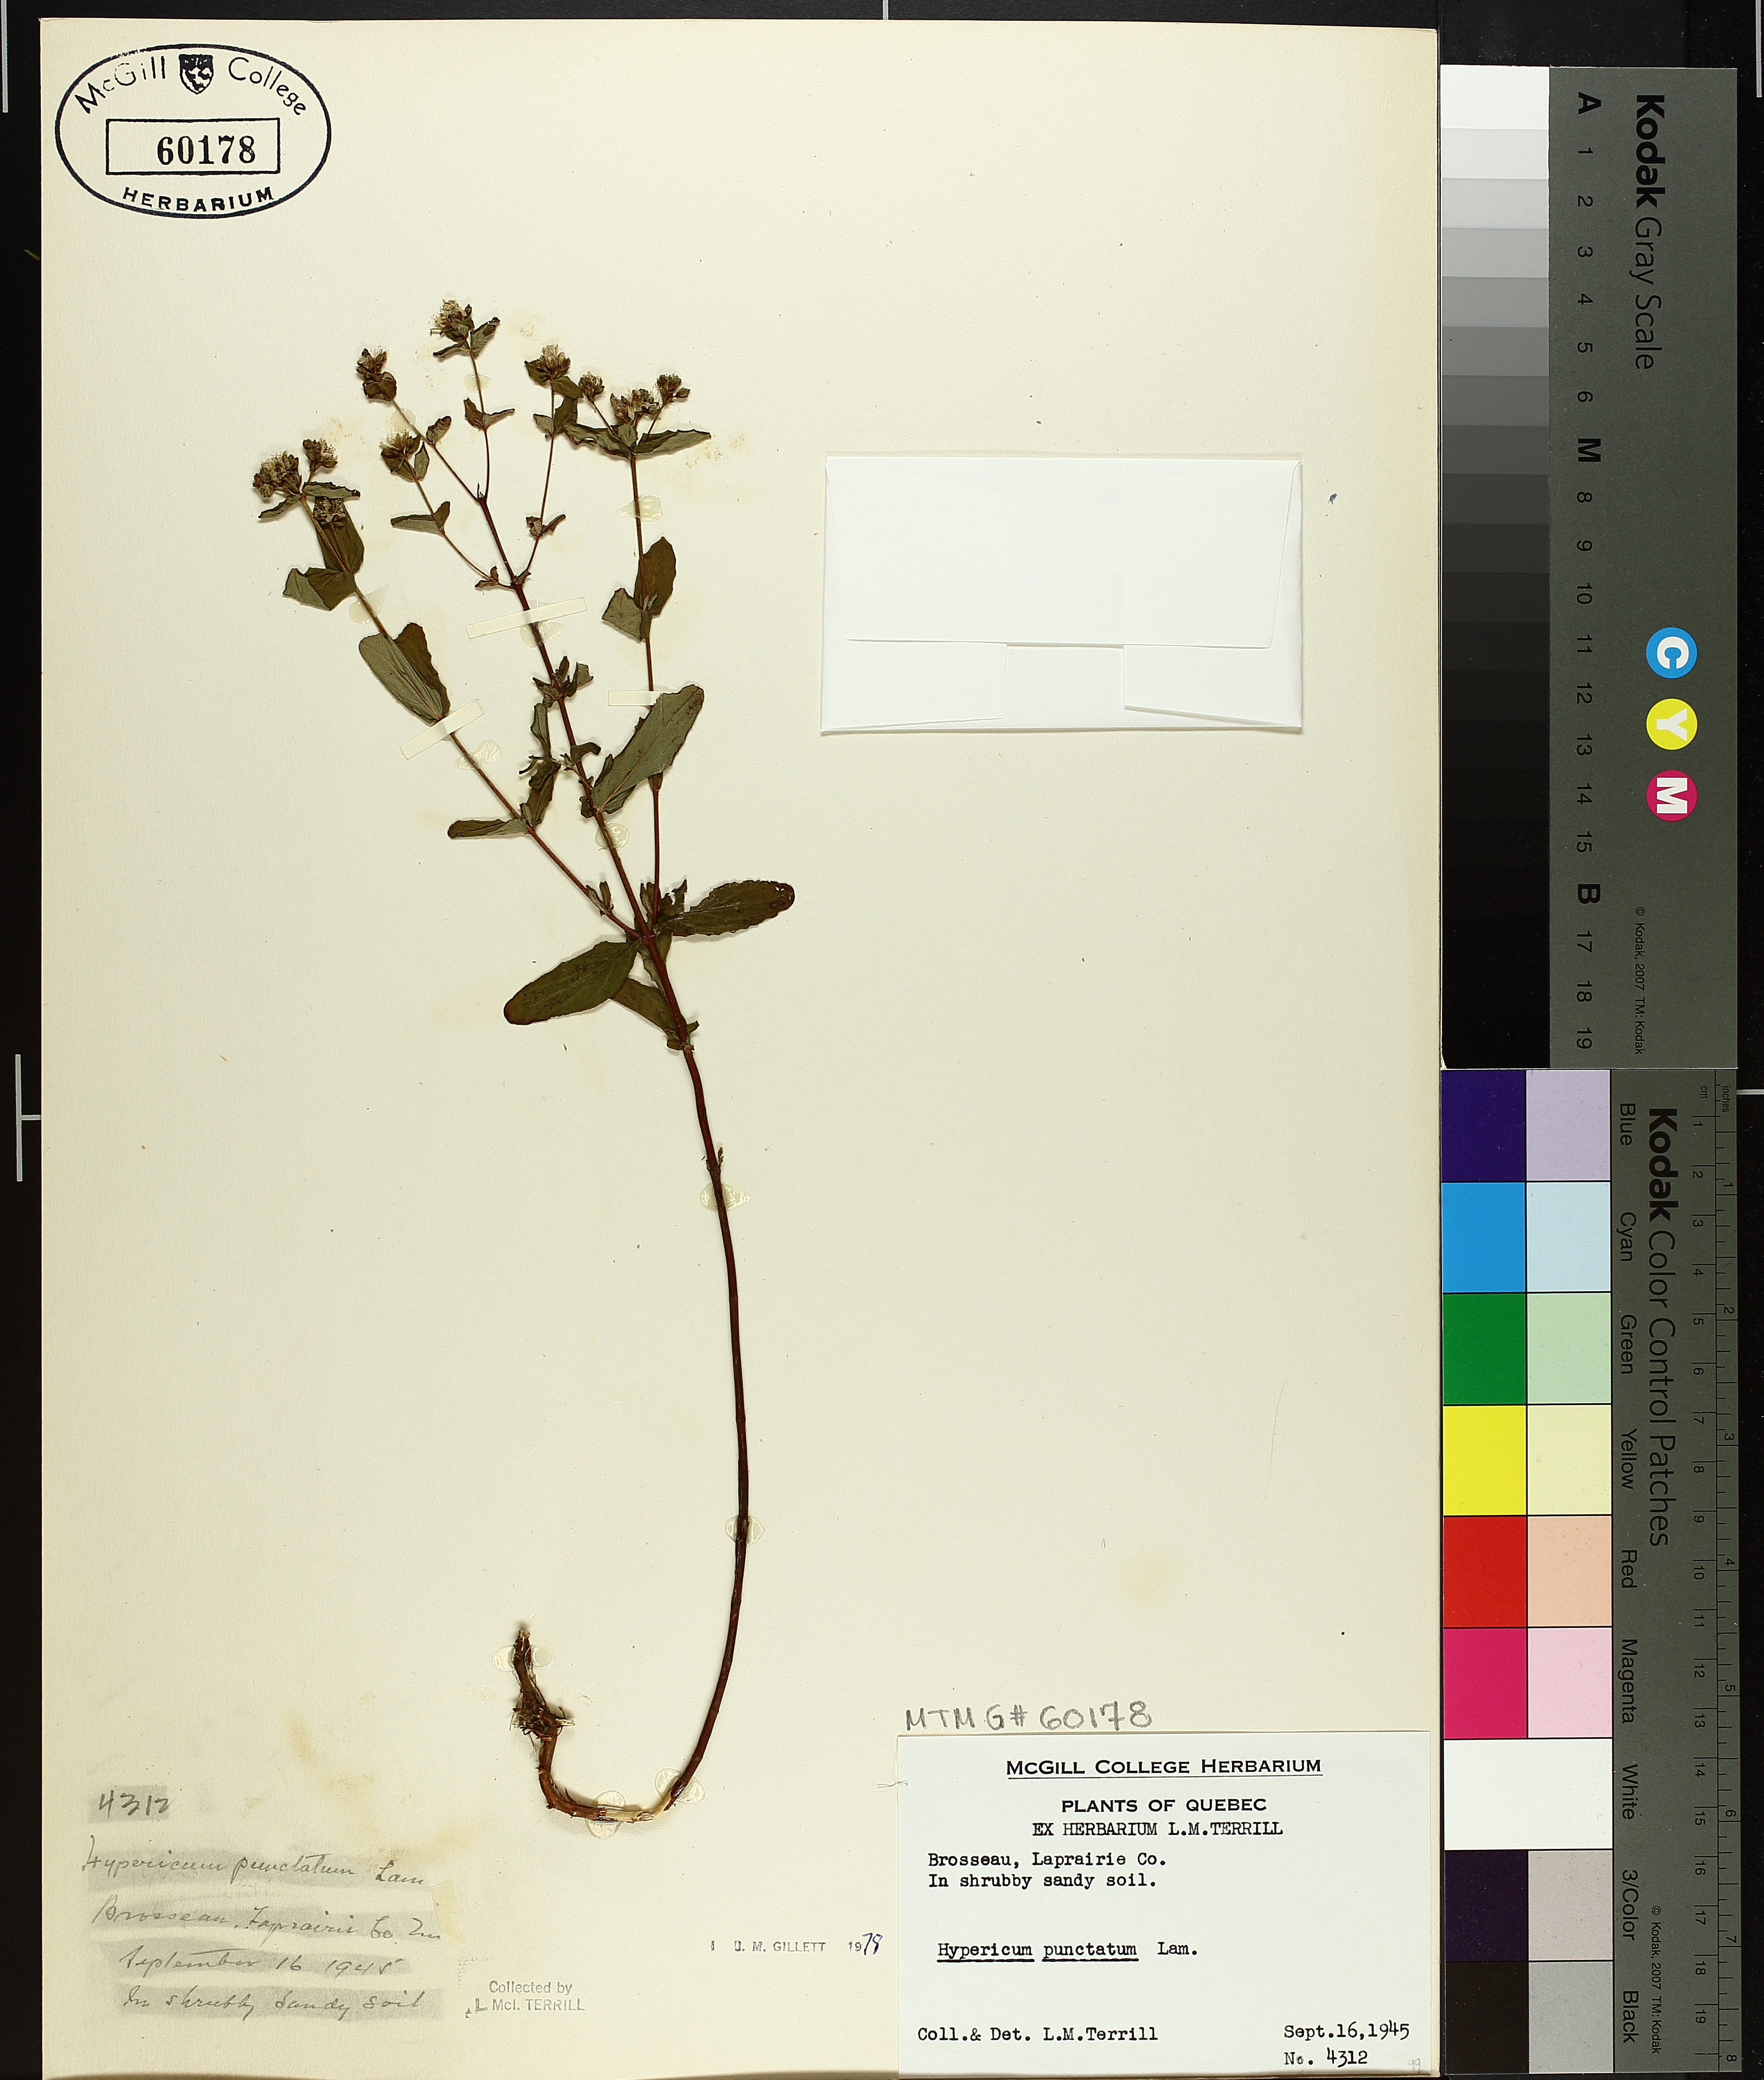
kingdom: Plantae
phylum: Tracheophyta
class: Magnoliopsida
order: Malpighiales
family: Hypericaceae
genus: Hypericum
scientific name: Hypericum punctatum
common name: Spotted st. john's-wort
